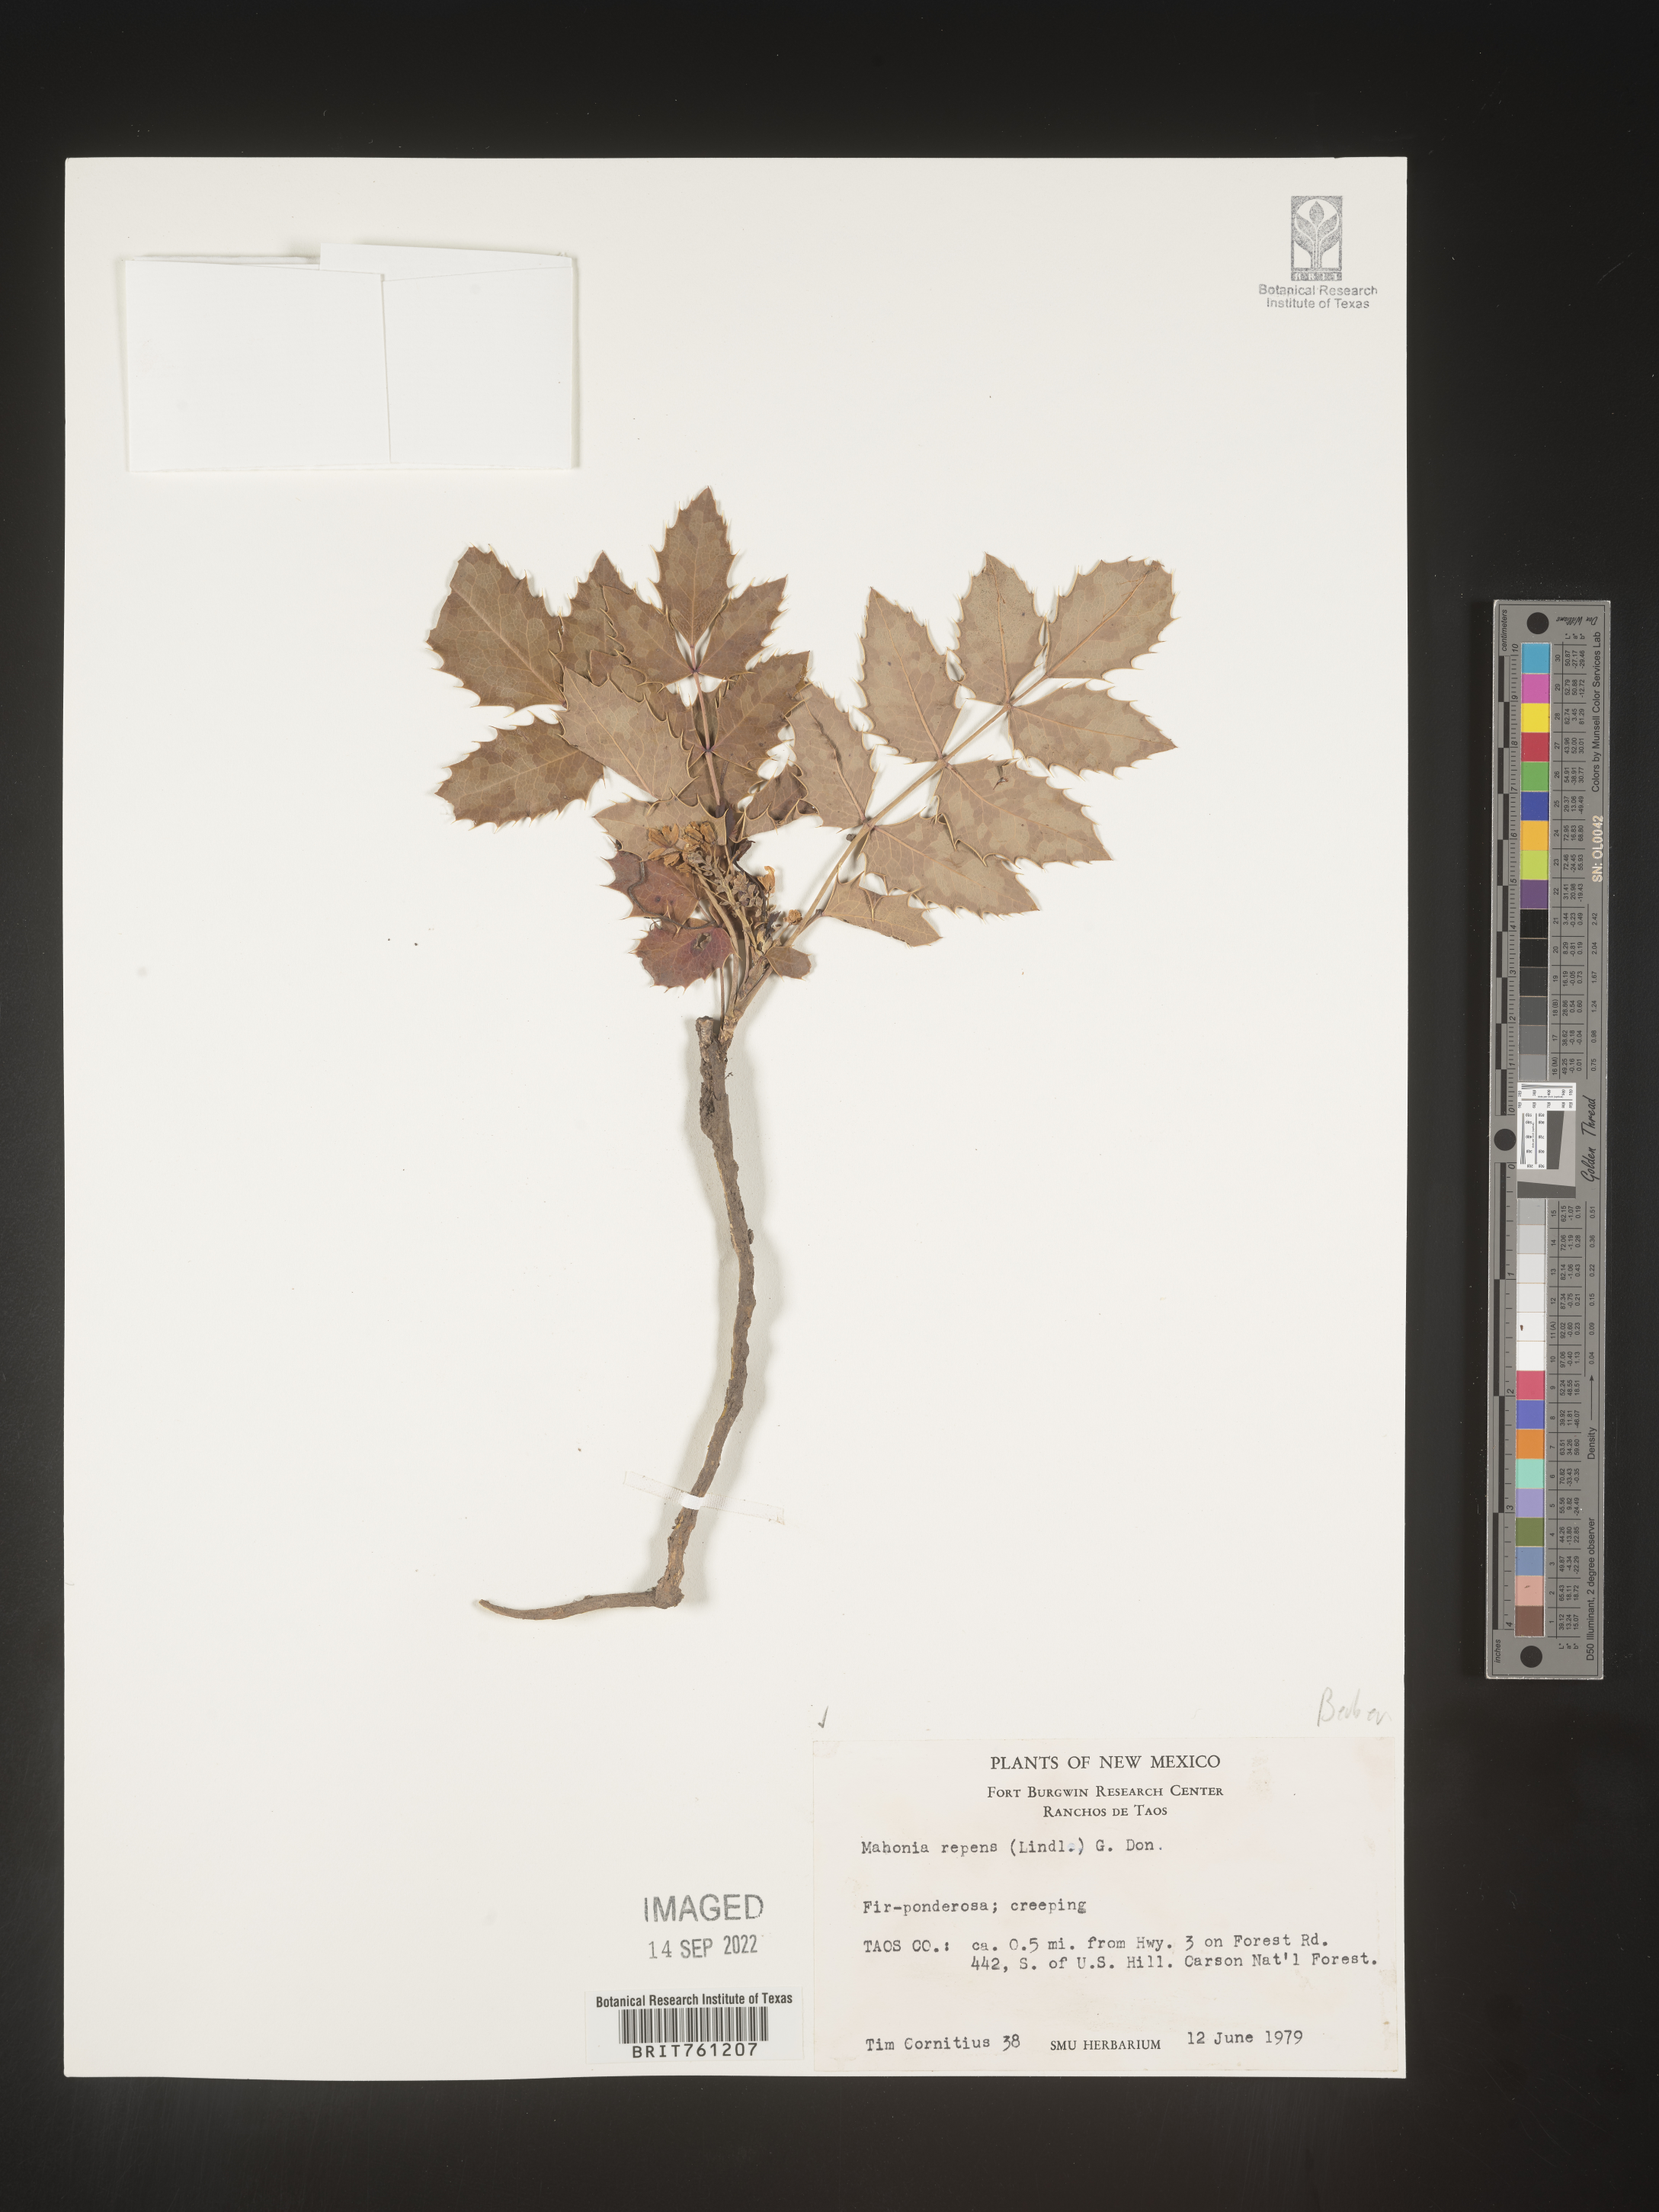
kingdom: Plantae
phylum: Tracheophyta
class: Magnoliopsida
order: Ranunculales
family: Berberidaceae
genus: Mahonia
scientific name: Mahonia repens
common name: Creeping oregon-grape
